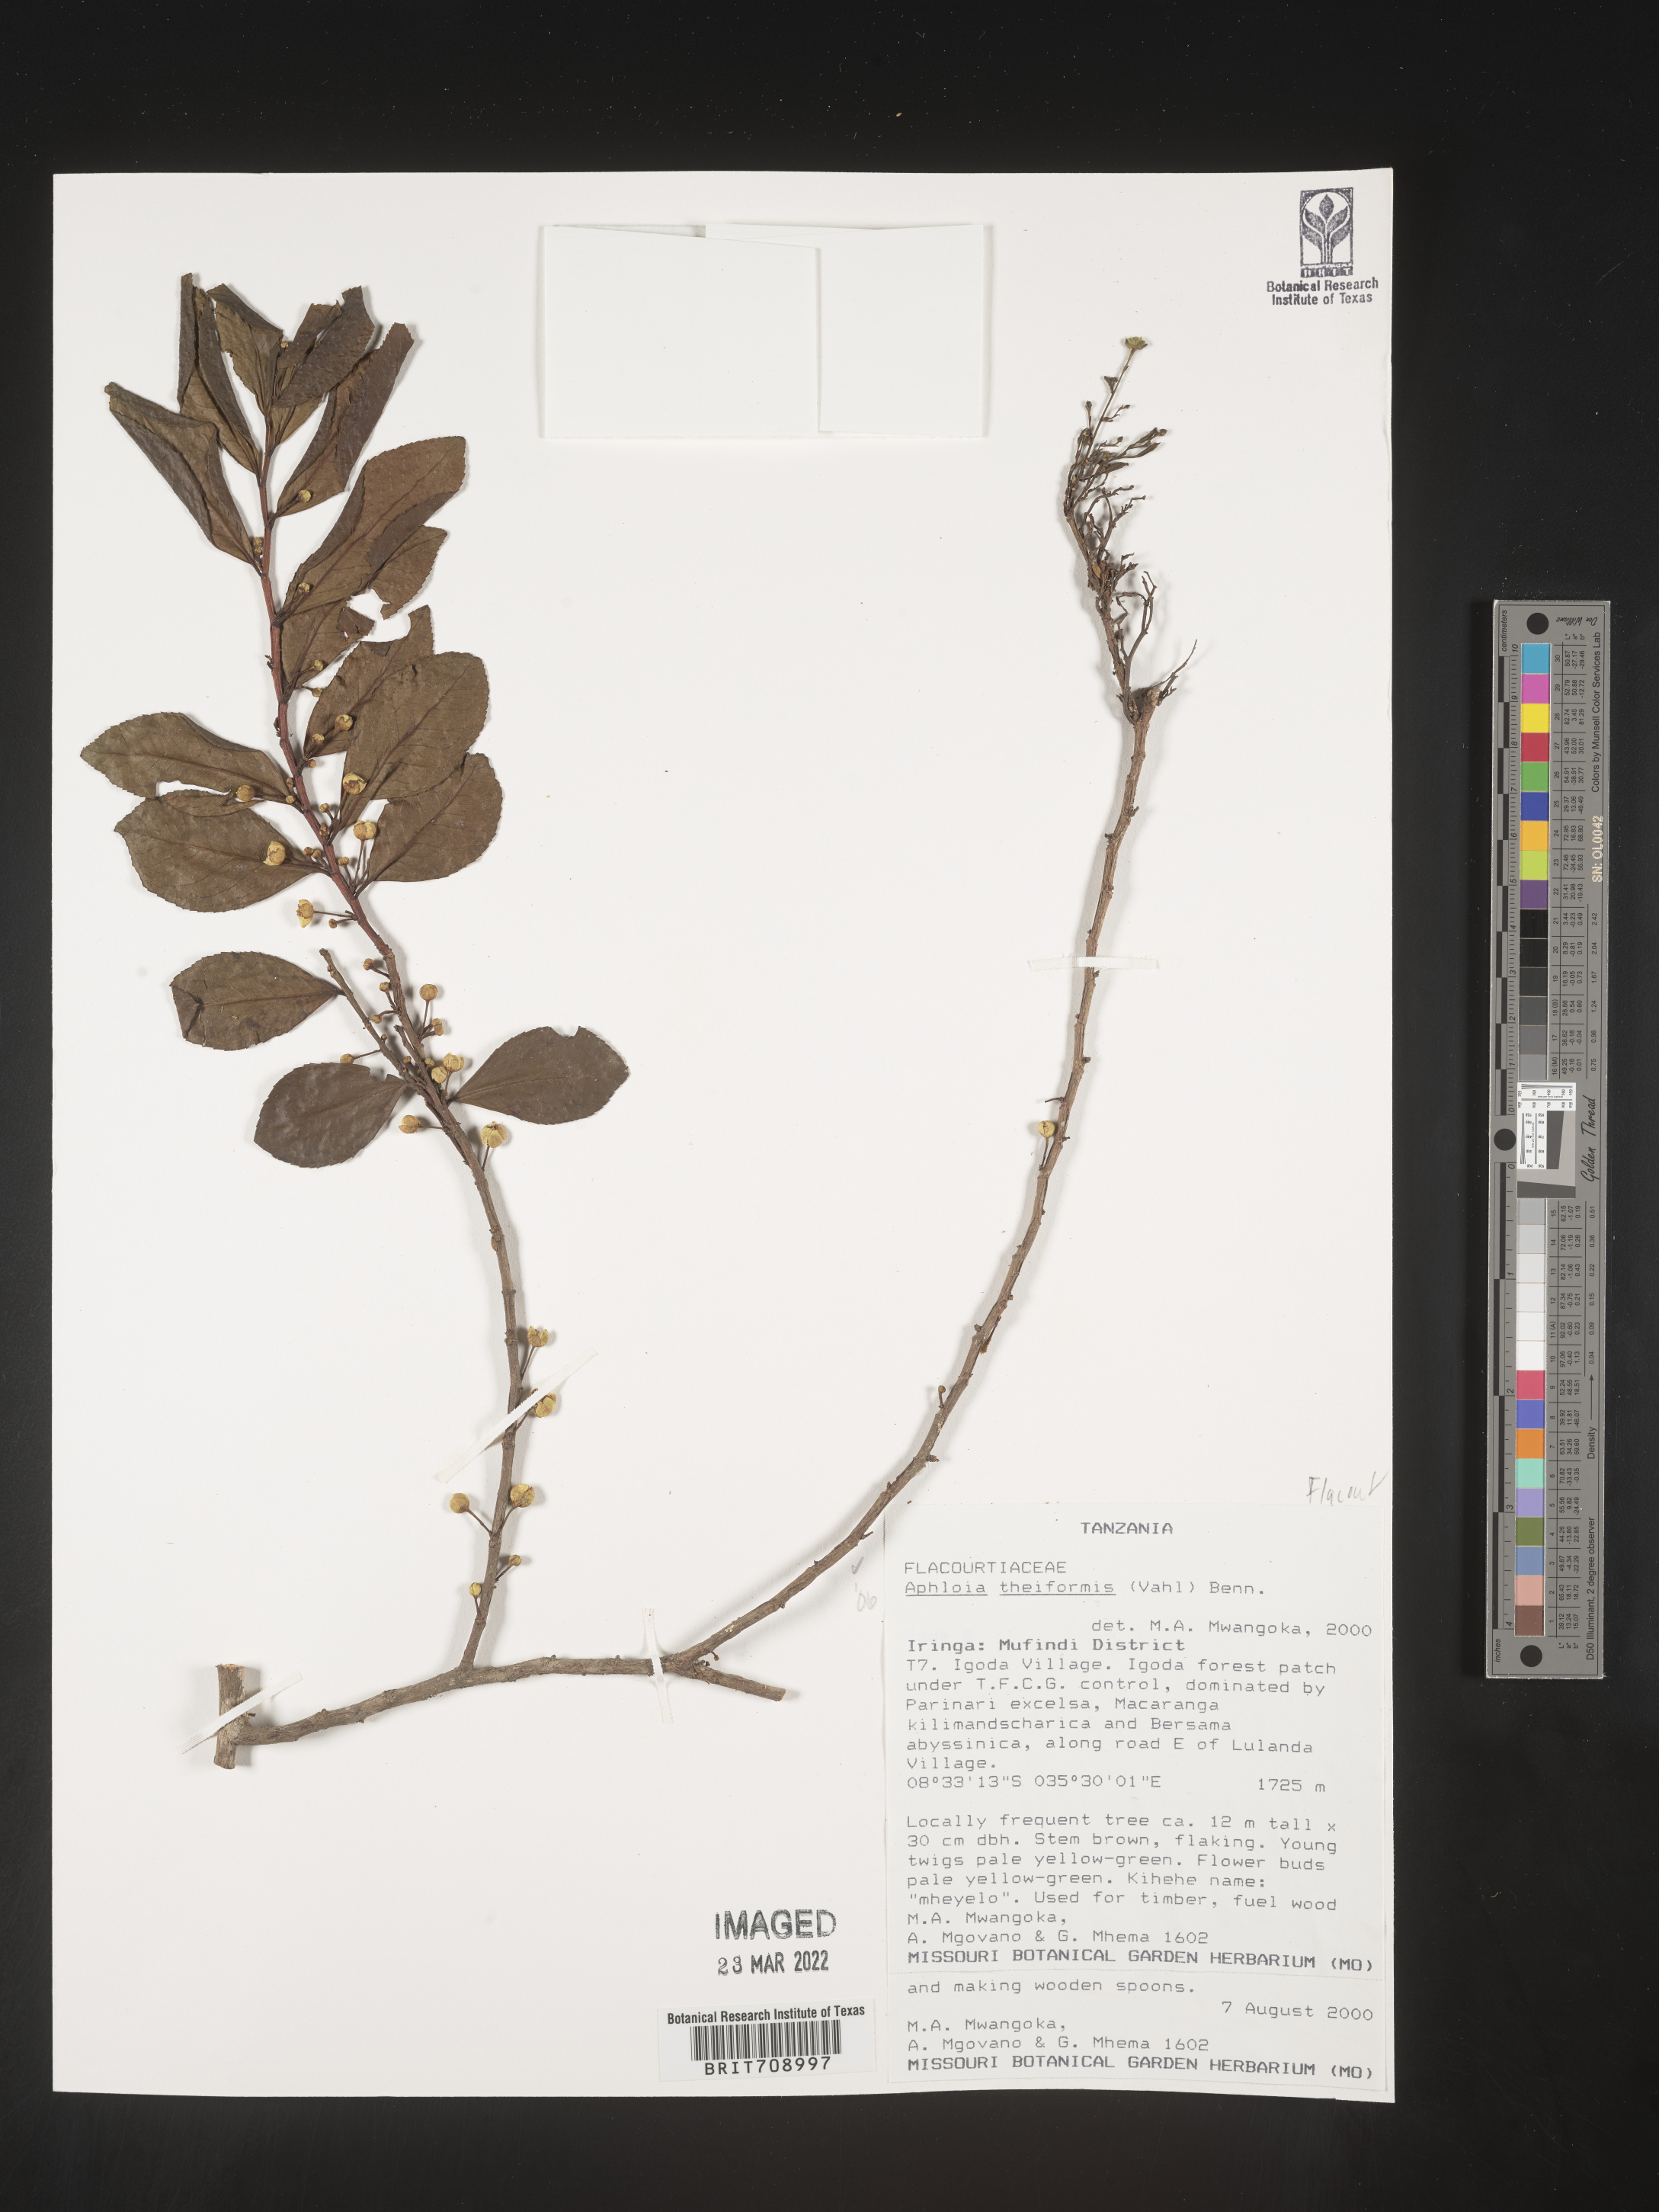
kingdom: Plantae
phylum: Tracheophyta
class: Magnoliopsida
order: Crossosomatales
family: Aphloiaceae
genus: Aphloia
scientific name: Aphloia
